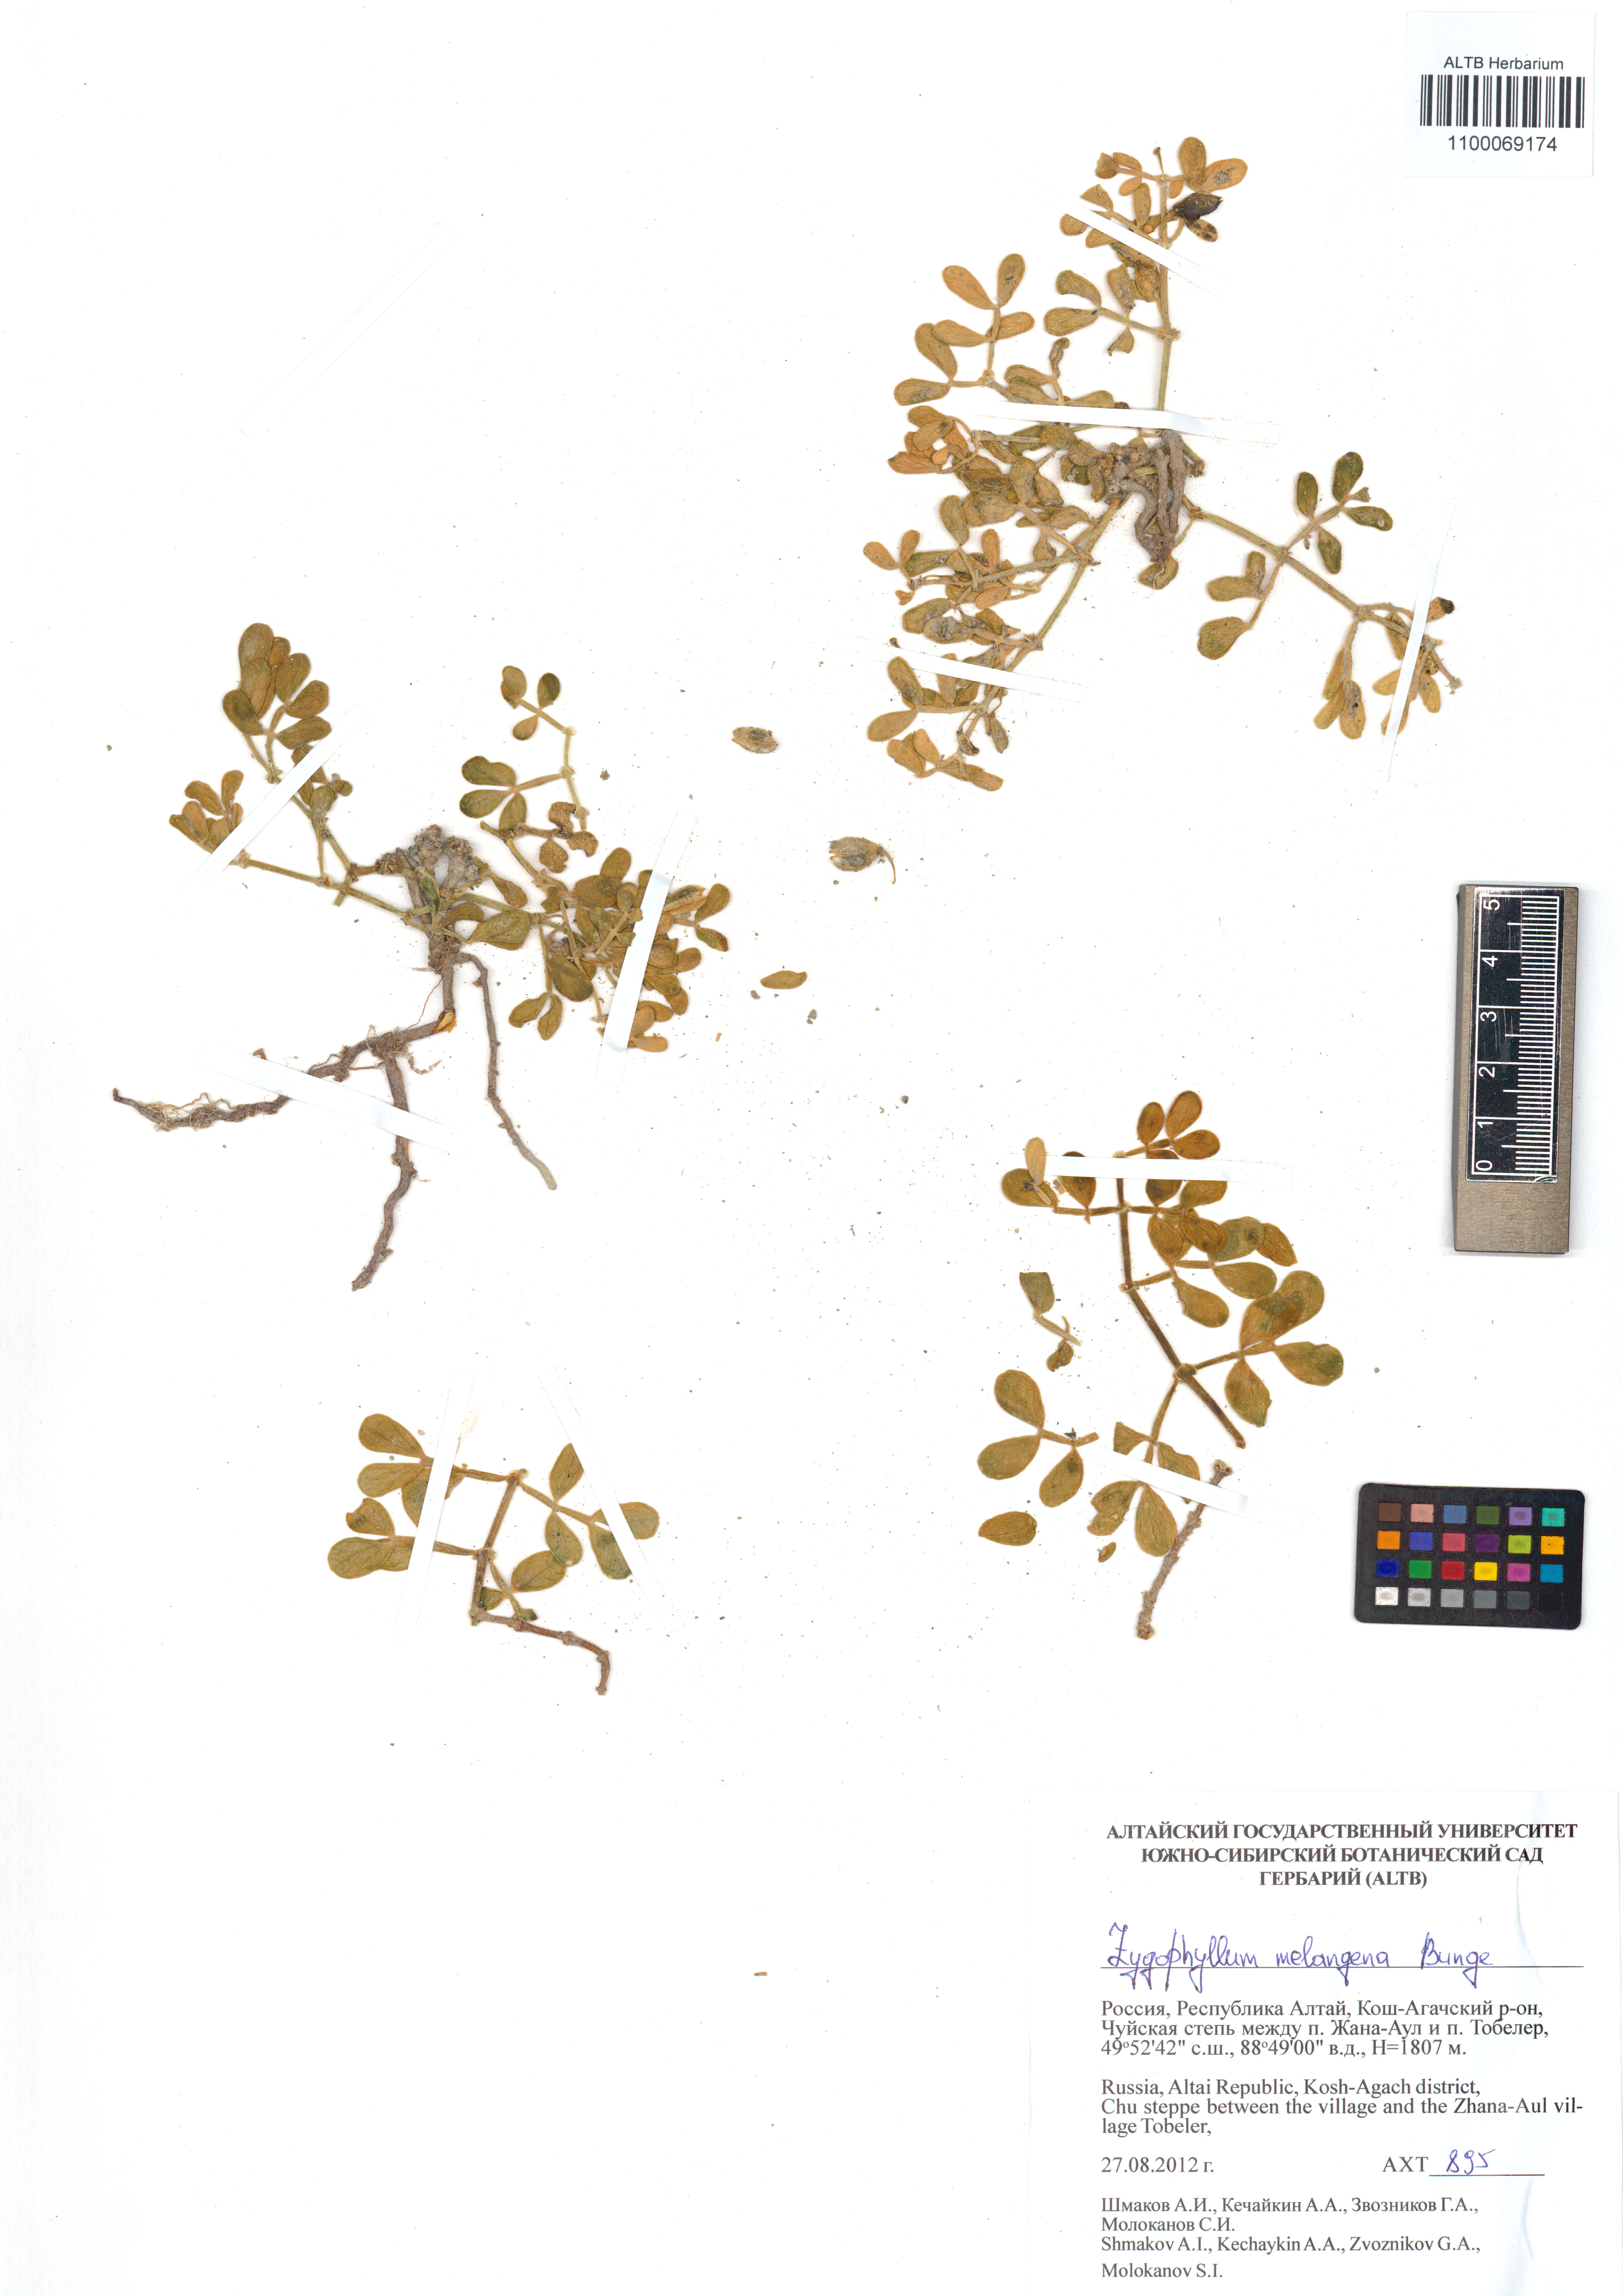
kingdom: Plantae
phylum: Tracheophyta
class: Magnoliopsida
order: Zygophyllales
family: Zygophyllaceae
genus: Zygophyllum
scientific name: Zygophyllum melongena
